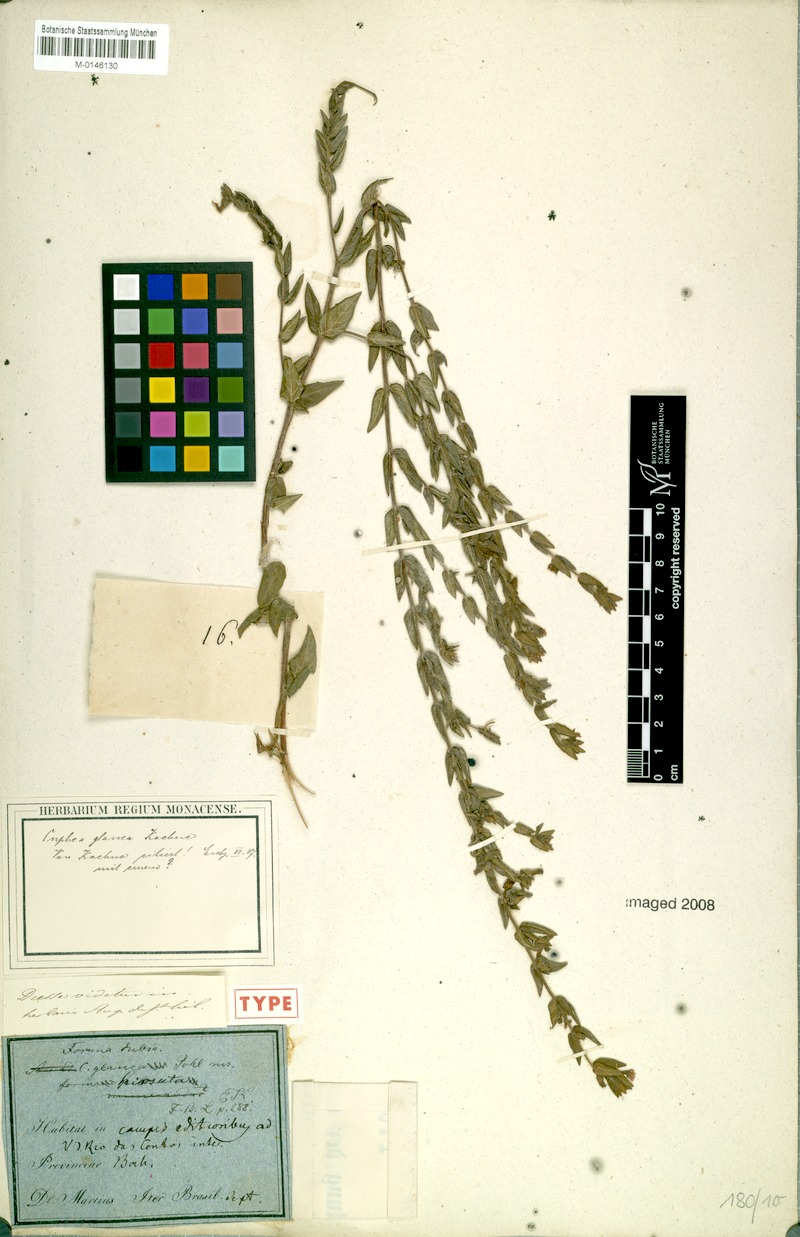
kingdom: Plantae
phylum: Tracheophyta
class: Magnoliopsida
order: Myrtales
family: Lythraceae
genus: Cuphea
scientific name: Cuphea glauca
